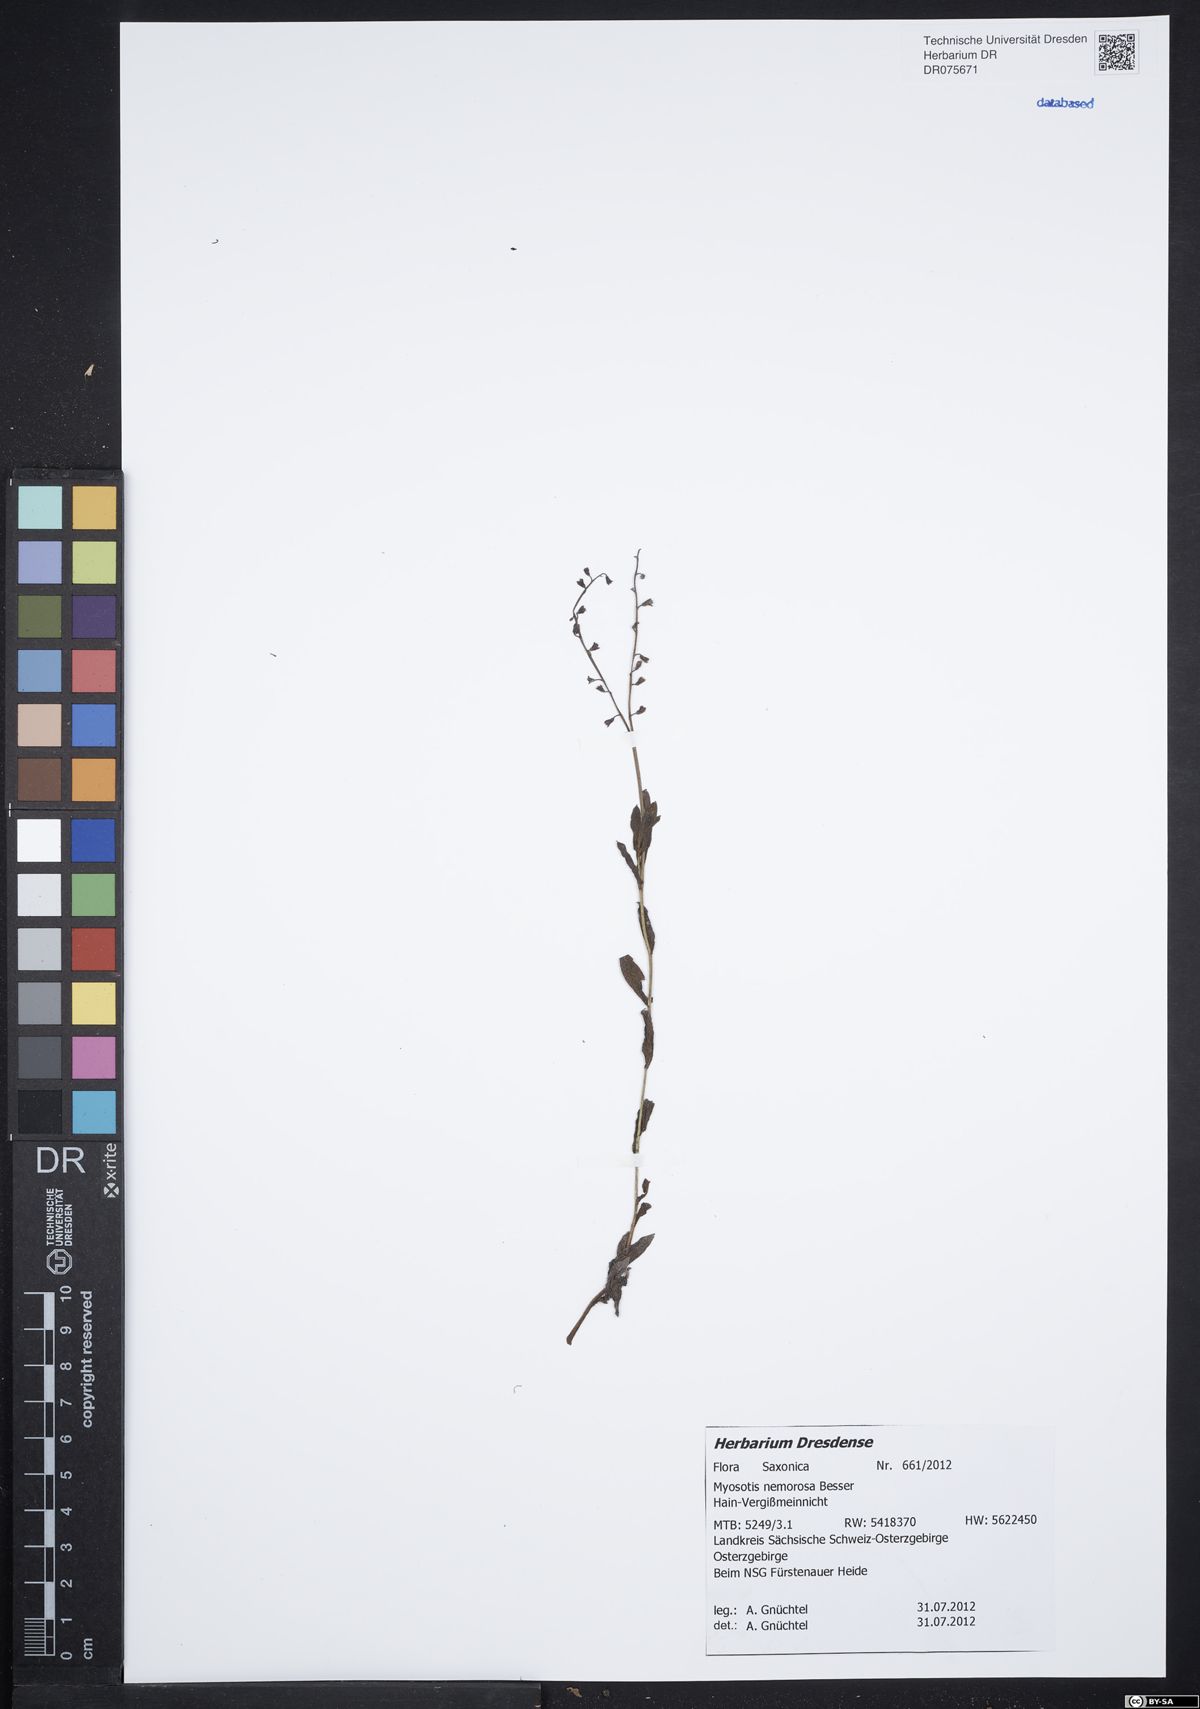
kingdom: Plantae
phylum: Tracheophyta
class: Magnoliopsida
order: Boraginales
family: Boraginaceae
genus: Myosotis
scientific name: Myosotis nemorosa
